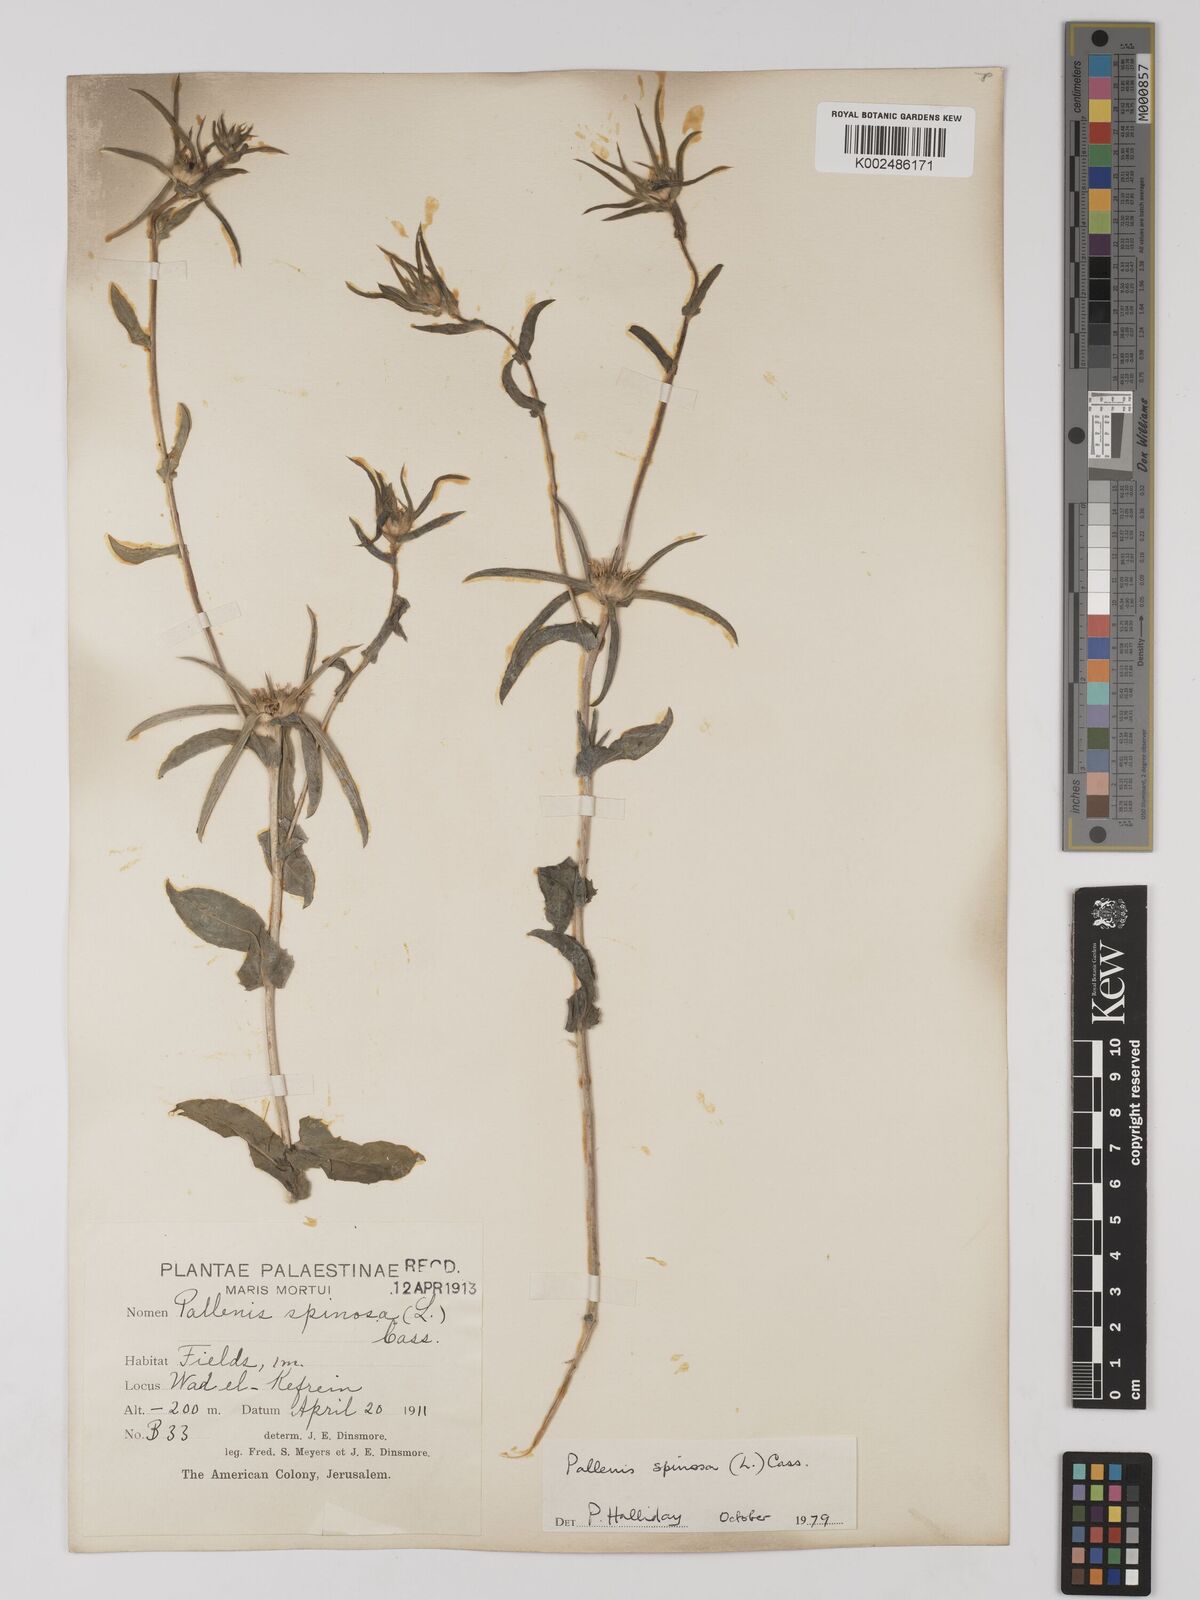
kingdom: Plantae
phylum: Tracheophyta
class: Magnoliopsida
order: Asterales
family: Asteraceae
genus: Pallenis
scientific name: Pallenis spinosa
